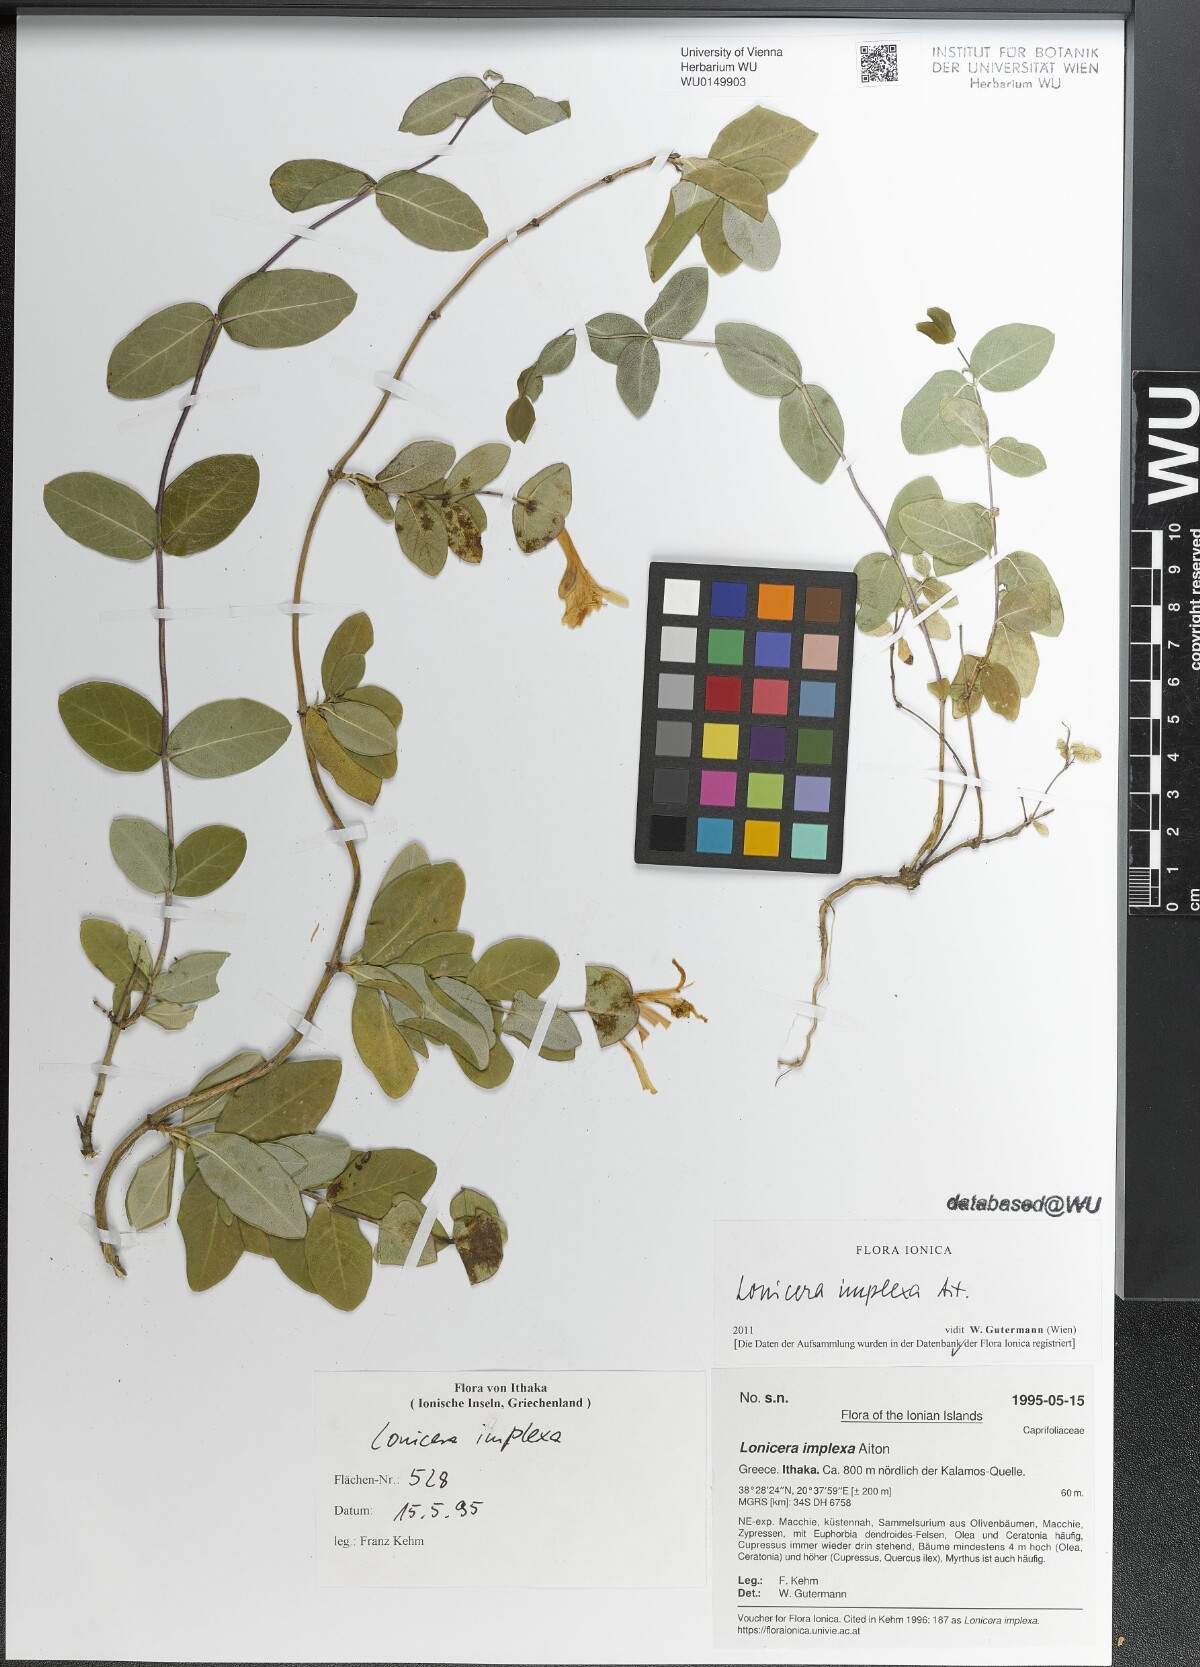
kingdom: Plantae
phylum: Tracheophyta
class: Magnoliopsida
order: Dipsacales
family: Caprifoliaceae
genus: Lonicera
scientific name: Lonicera implexa
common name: Minorca honeysuckle
